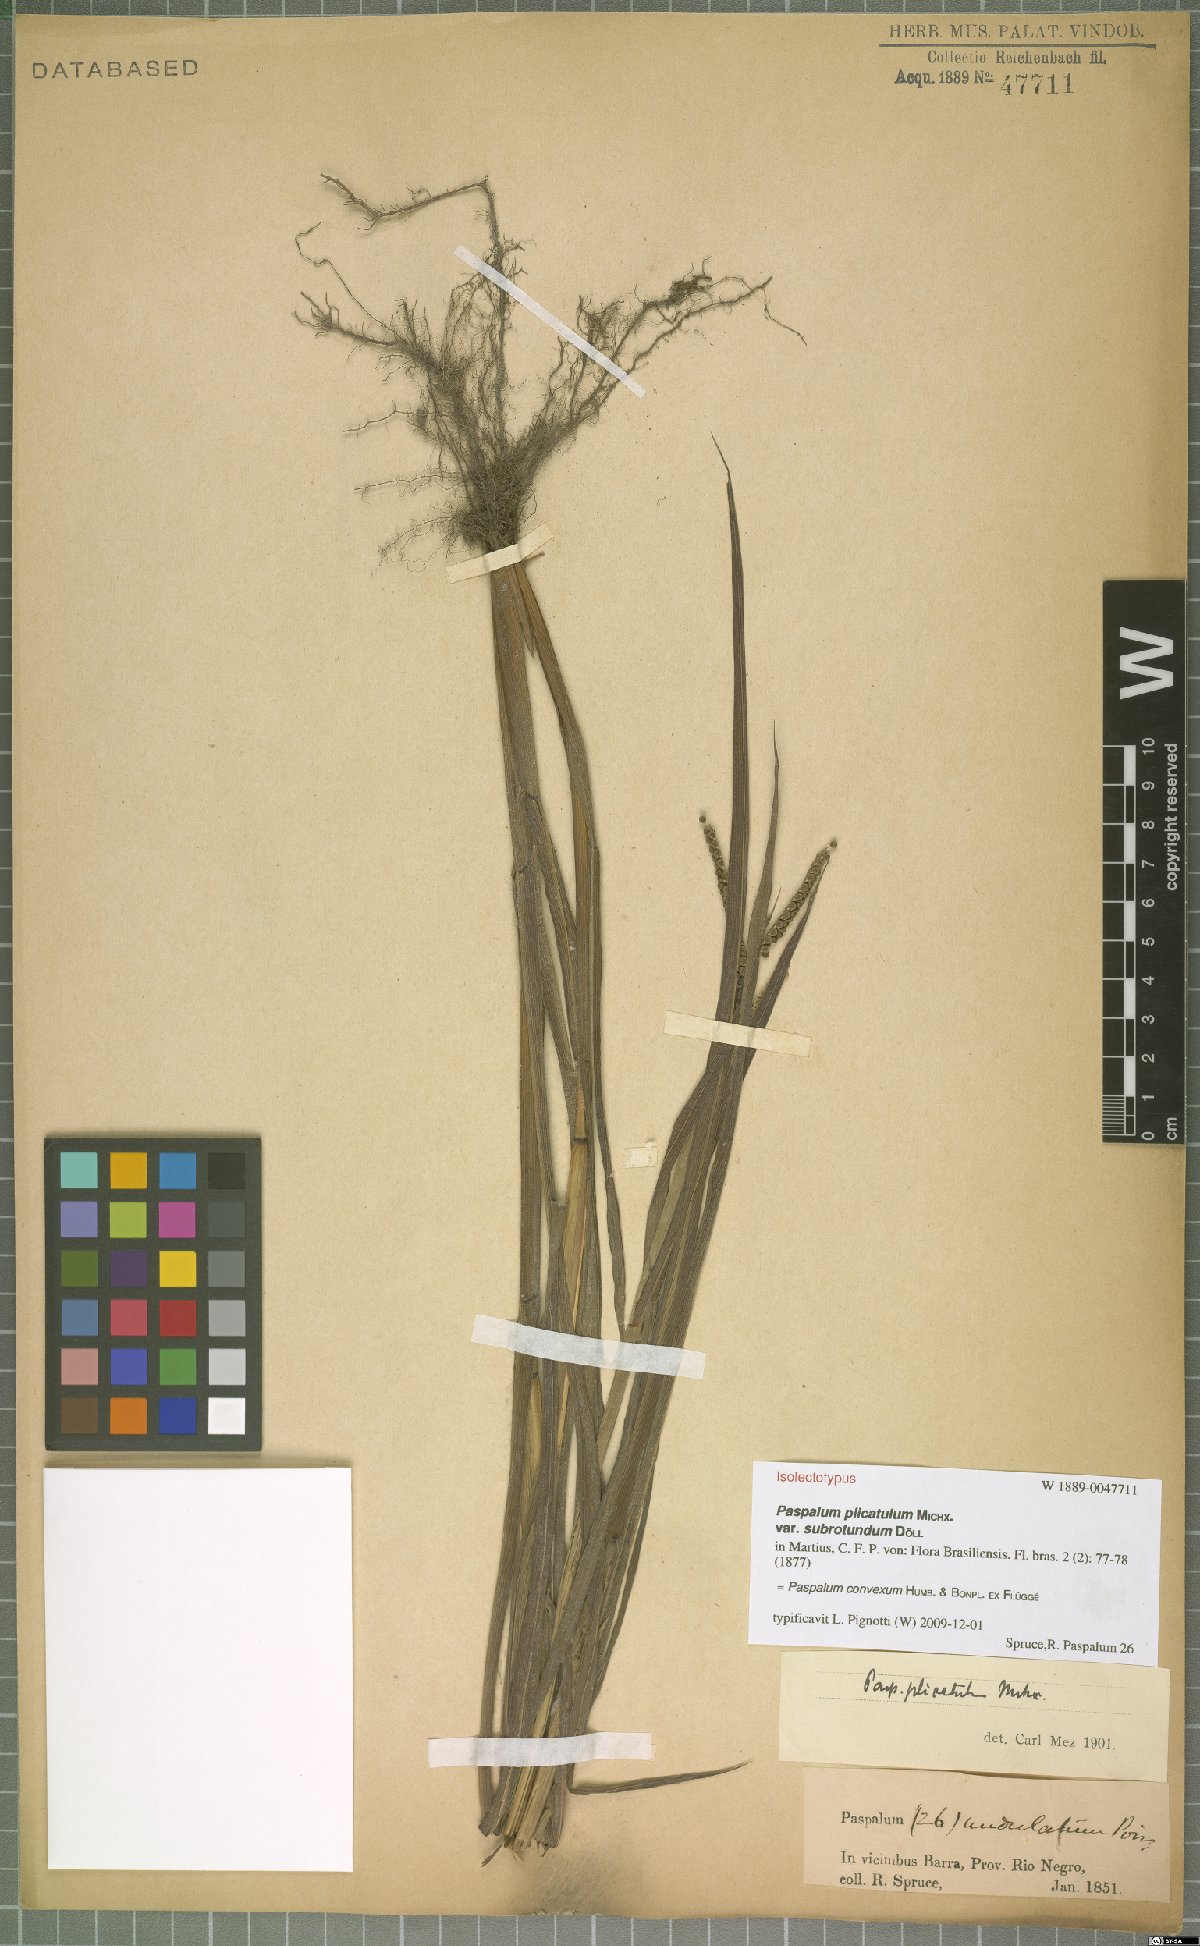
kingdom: Plantae
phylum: Tracheophyta
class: Liliopsida
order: Poales
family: Poaceae
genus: Paspalum
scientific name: Paspalum convexum
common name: Latin american crowngrass
